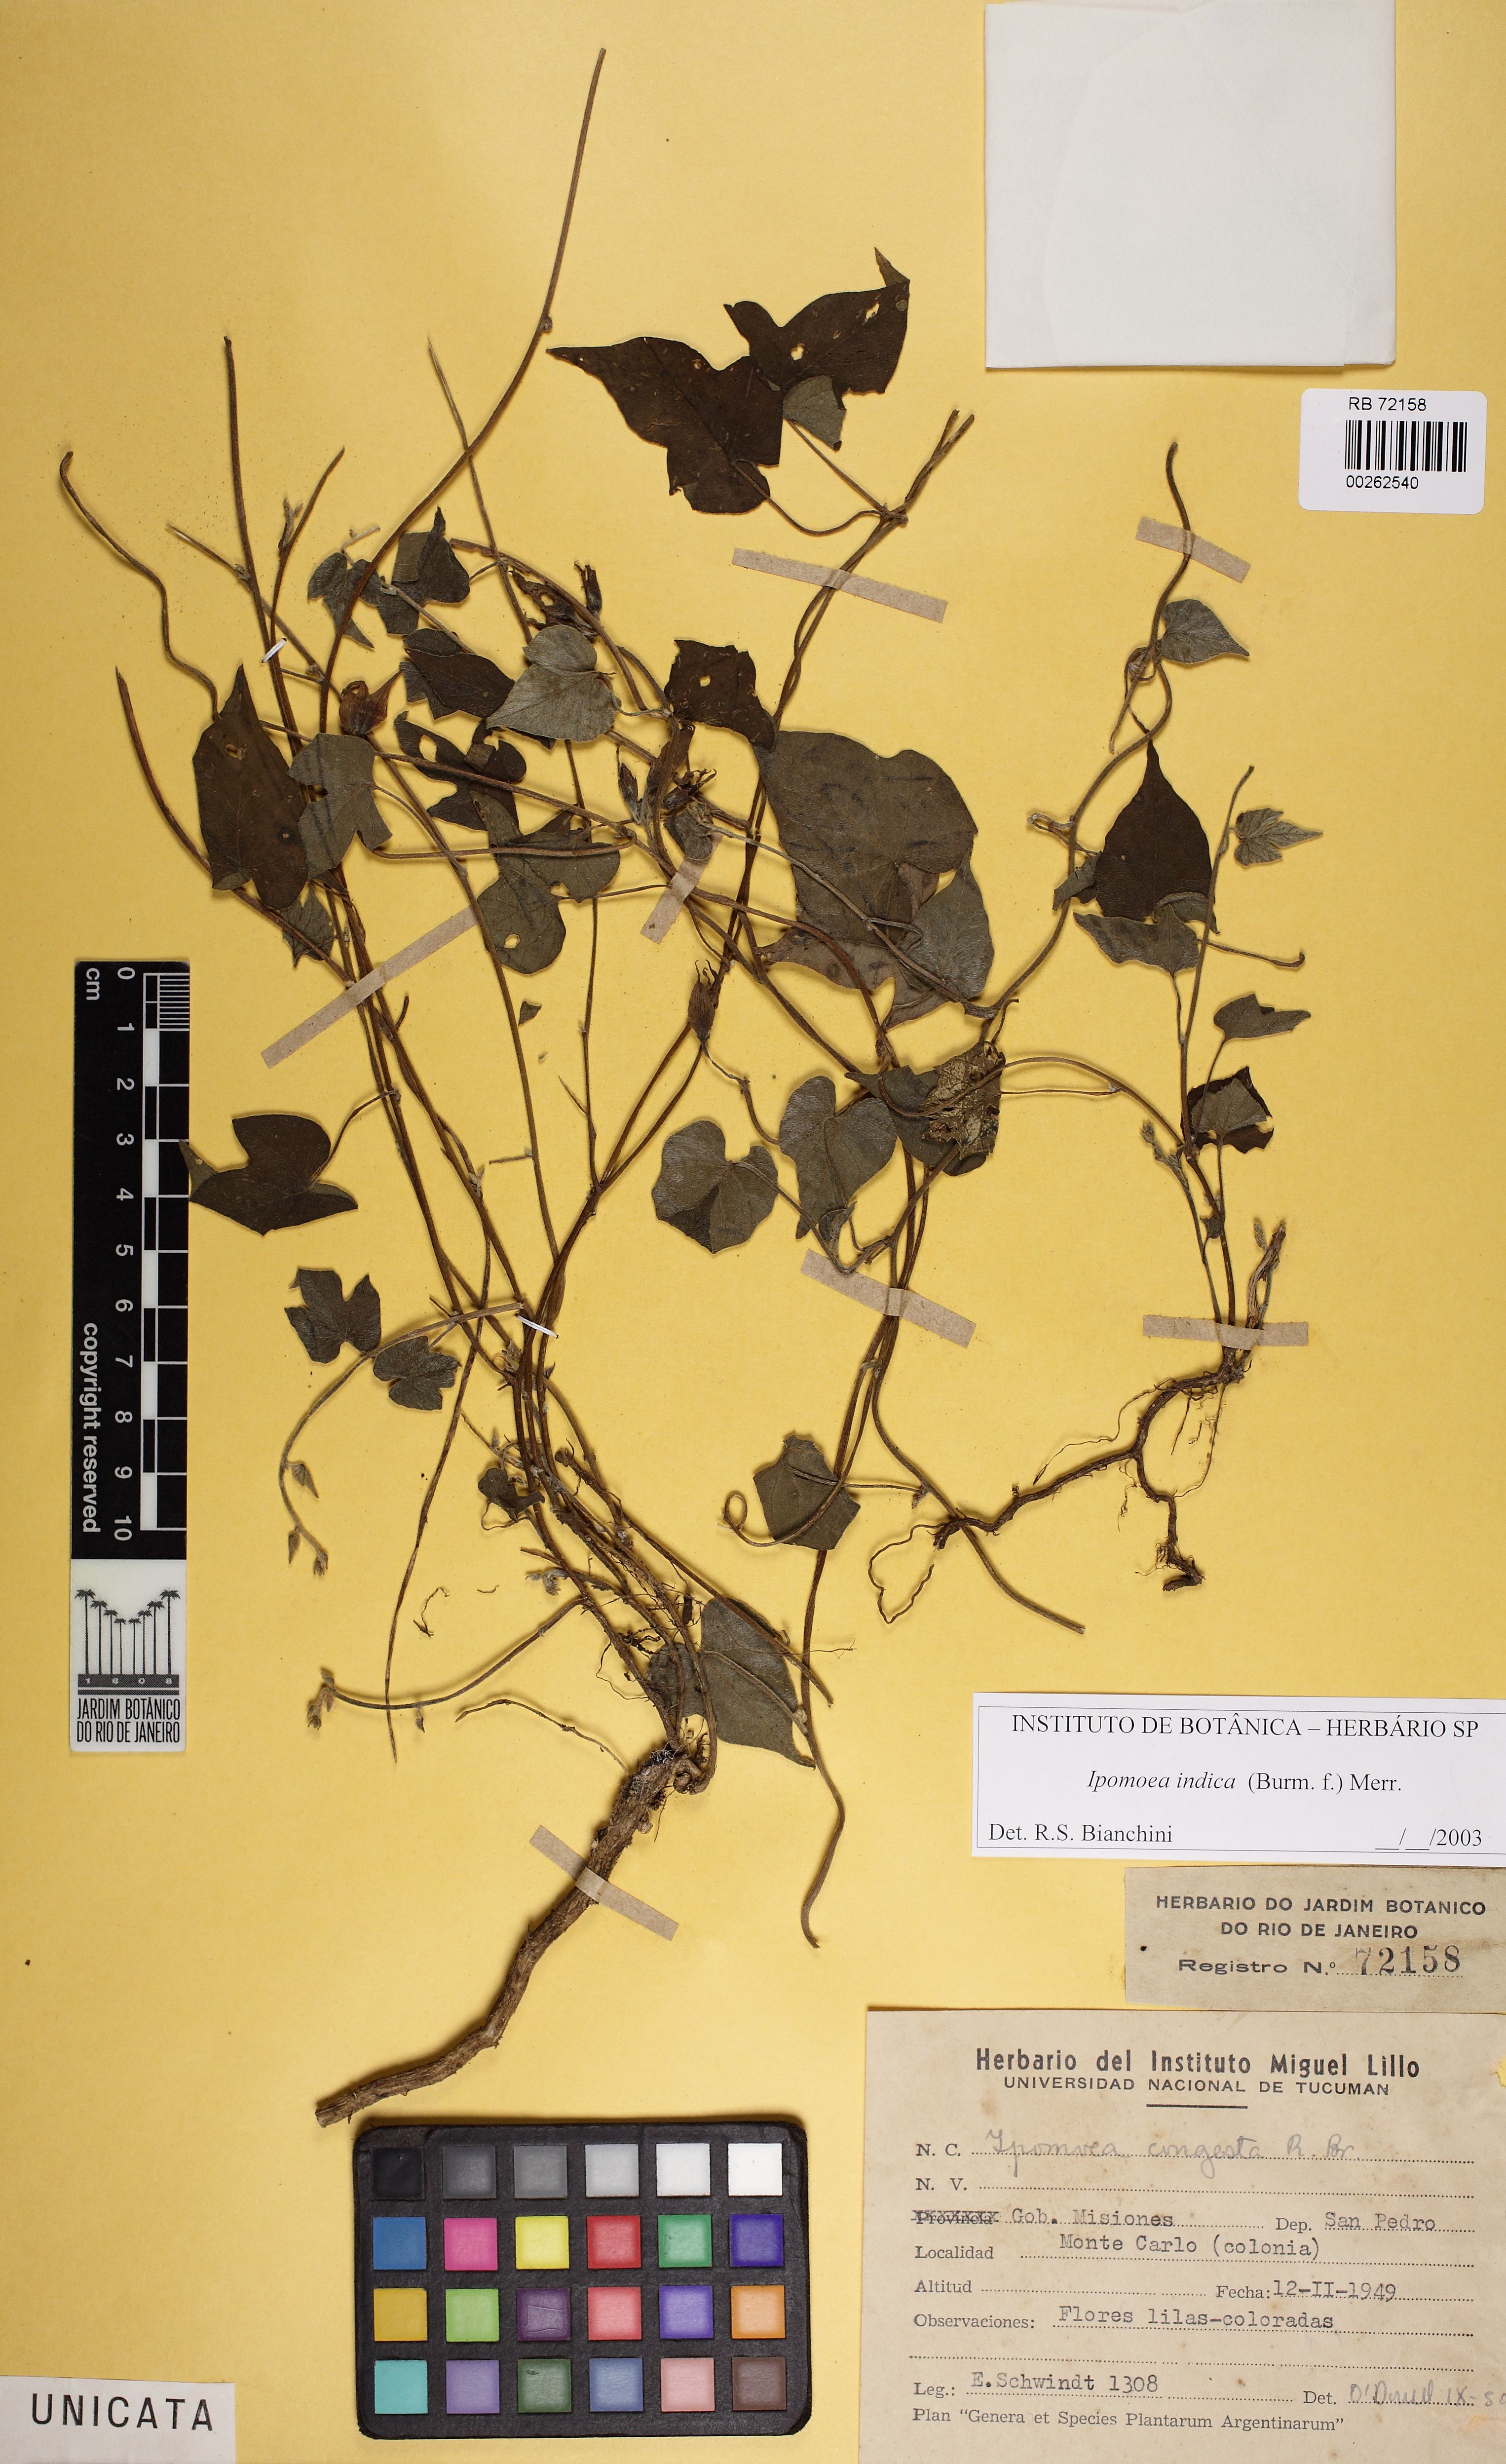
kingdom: Plantae
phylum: Tracheophyta
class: Magnoliopsida
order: Solanales
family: Convolvulaceae
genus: Ipomoea
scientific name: Ipomoea indica
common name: Blue dawnflower
